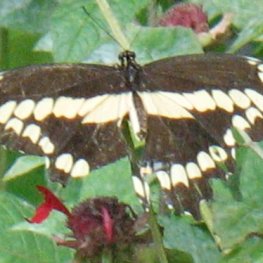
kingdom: Animalia
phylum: Arthropoda
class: Insecta
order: Lepidoptera
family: Papilionidae
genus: Papilio
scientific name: Papilio cresphontes
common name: Eastern Giant Swallowtail
